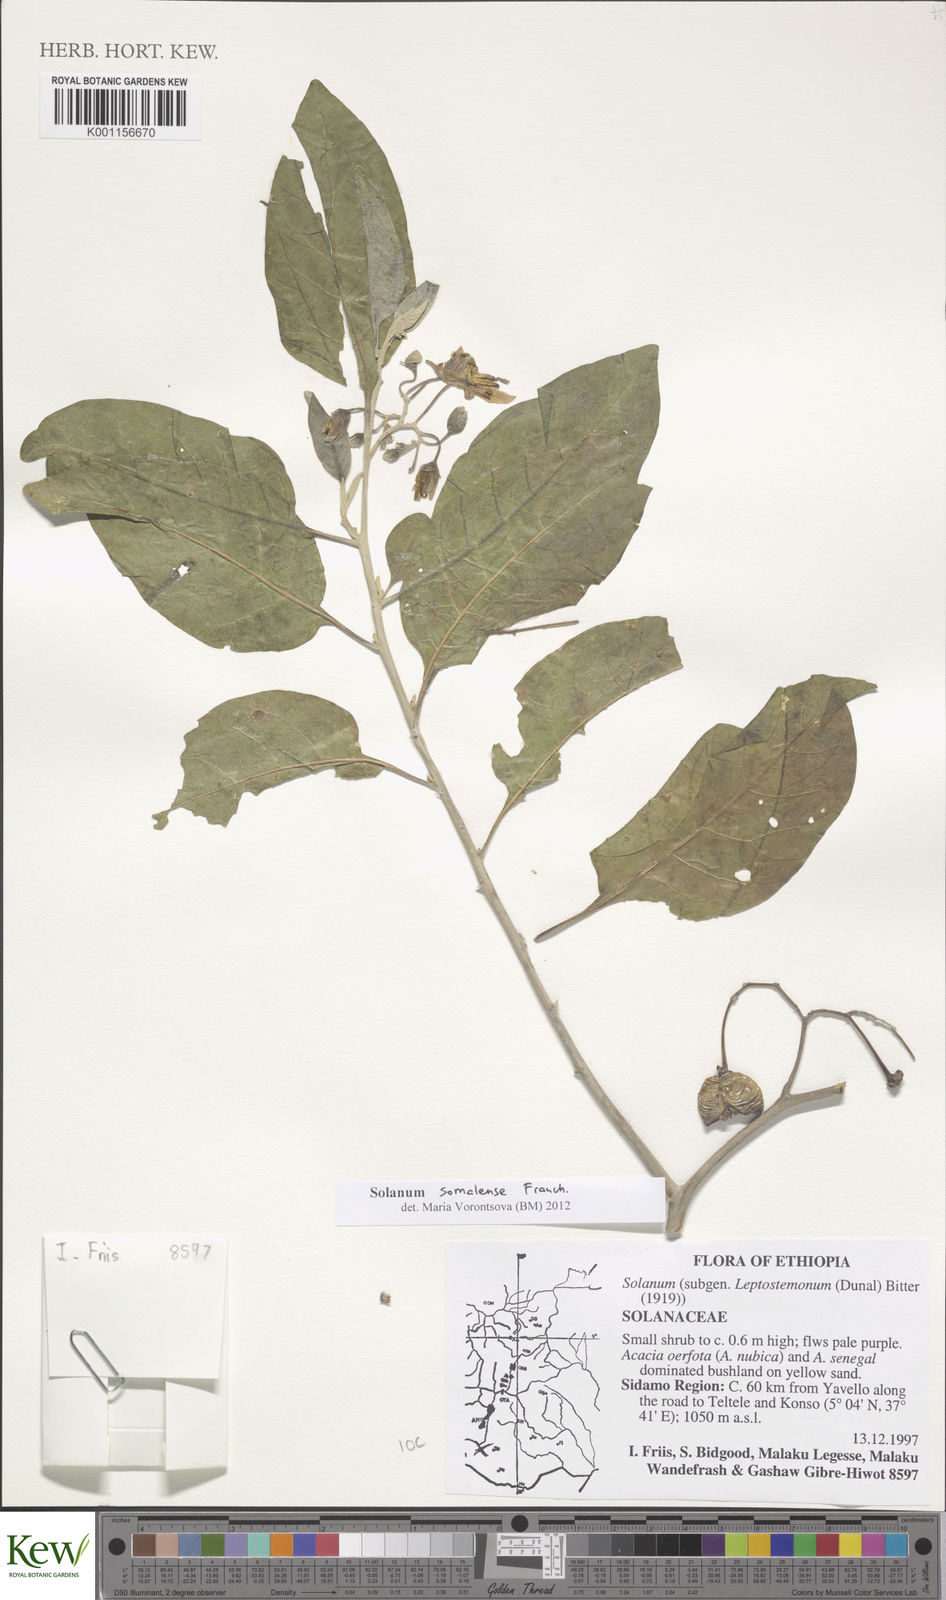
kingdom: Plantae
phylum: Tracheophyta
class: Magnoliopsida
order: Solanales
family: Solanaceae
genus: Solanum
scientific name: Solanum somalense
